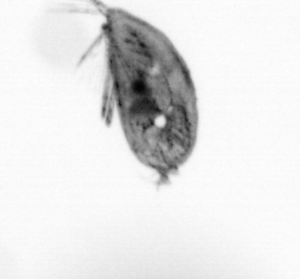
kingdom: Animalia
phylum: Arthropoda
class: Maxillopoda
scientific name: Maxillopoda
